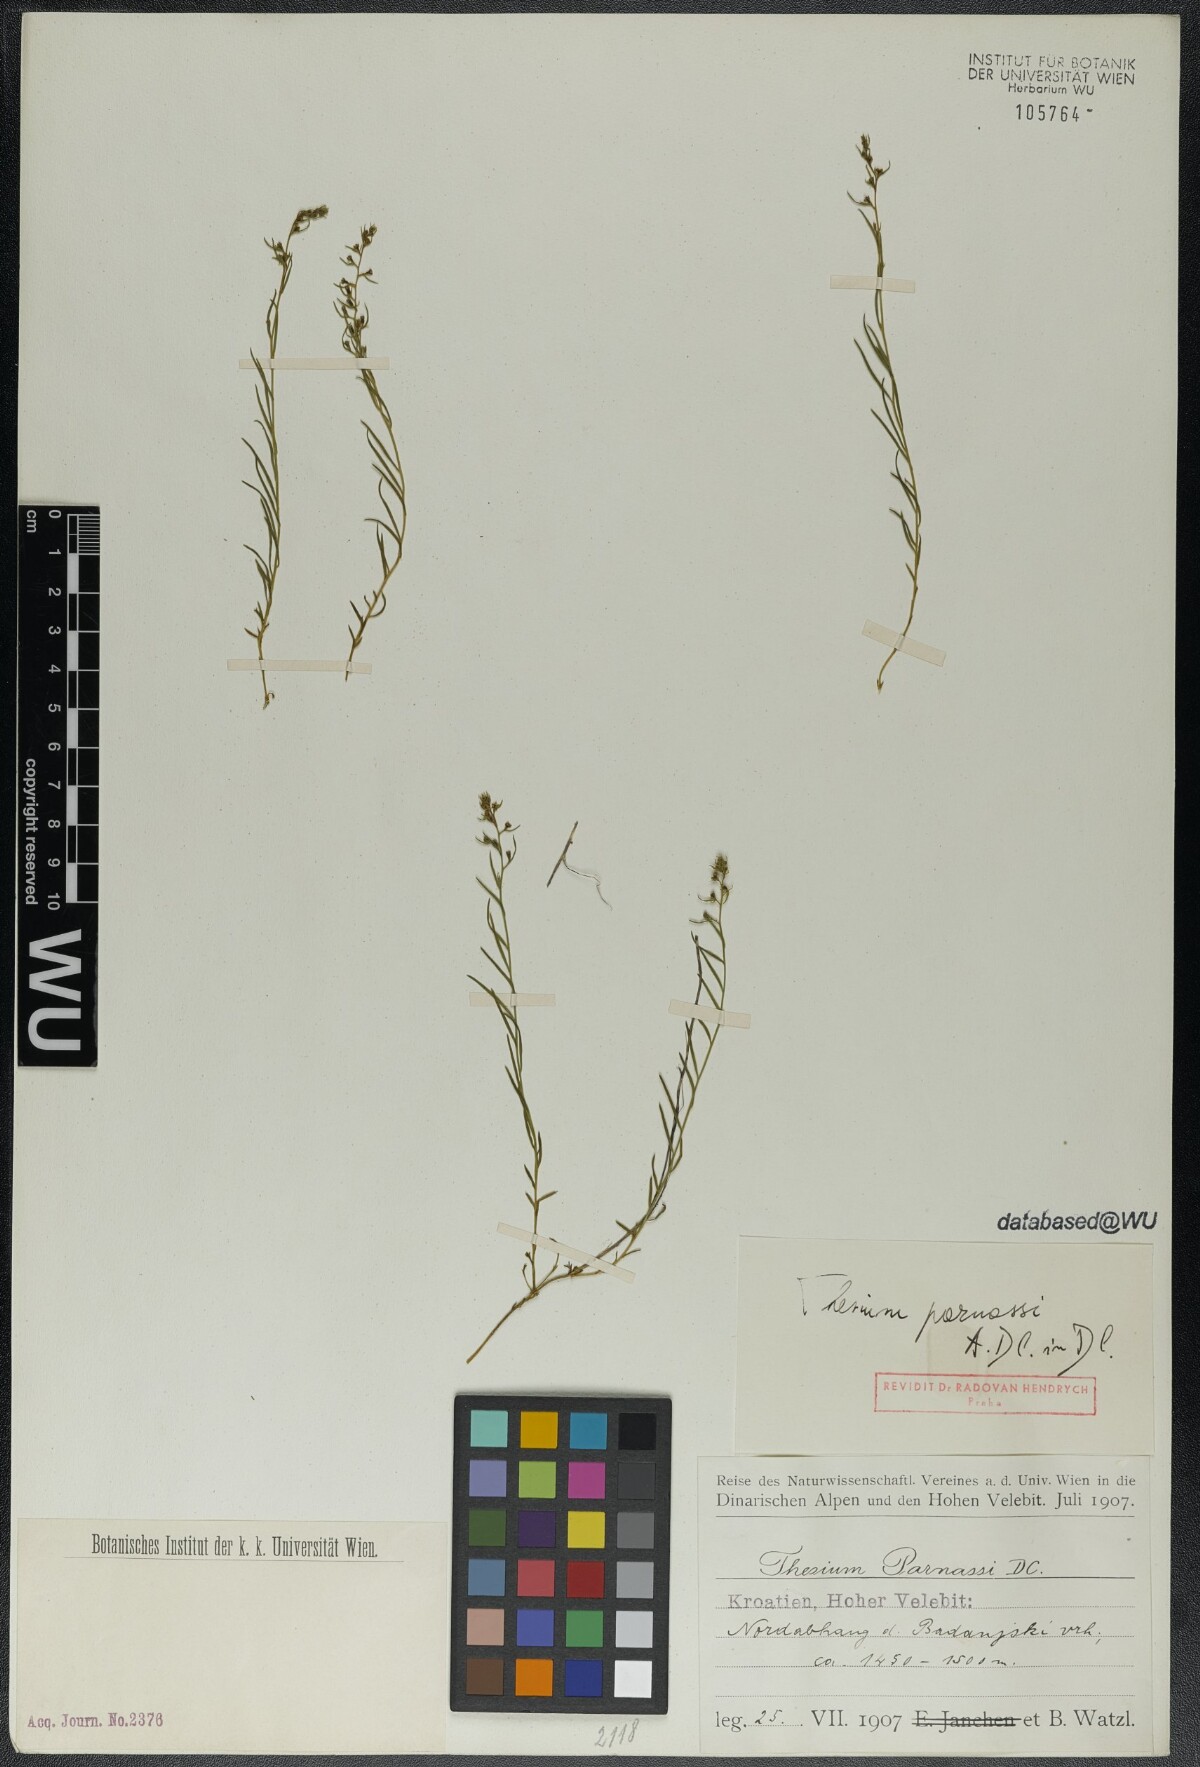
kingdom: Plantae
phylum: Tracheophyta
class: Magnoliopsida
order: Santalales
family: Thesiaceae
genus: Thesium
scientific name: Thesium parnassi
